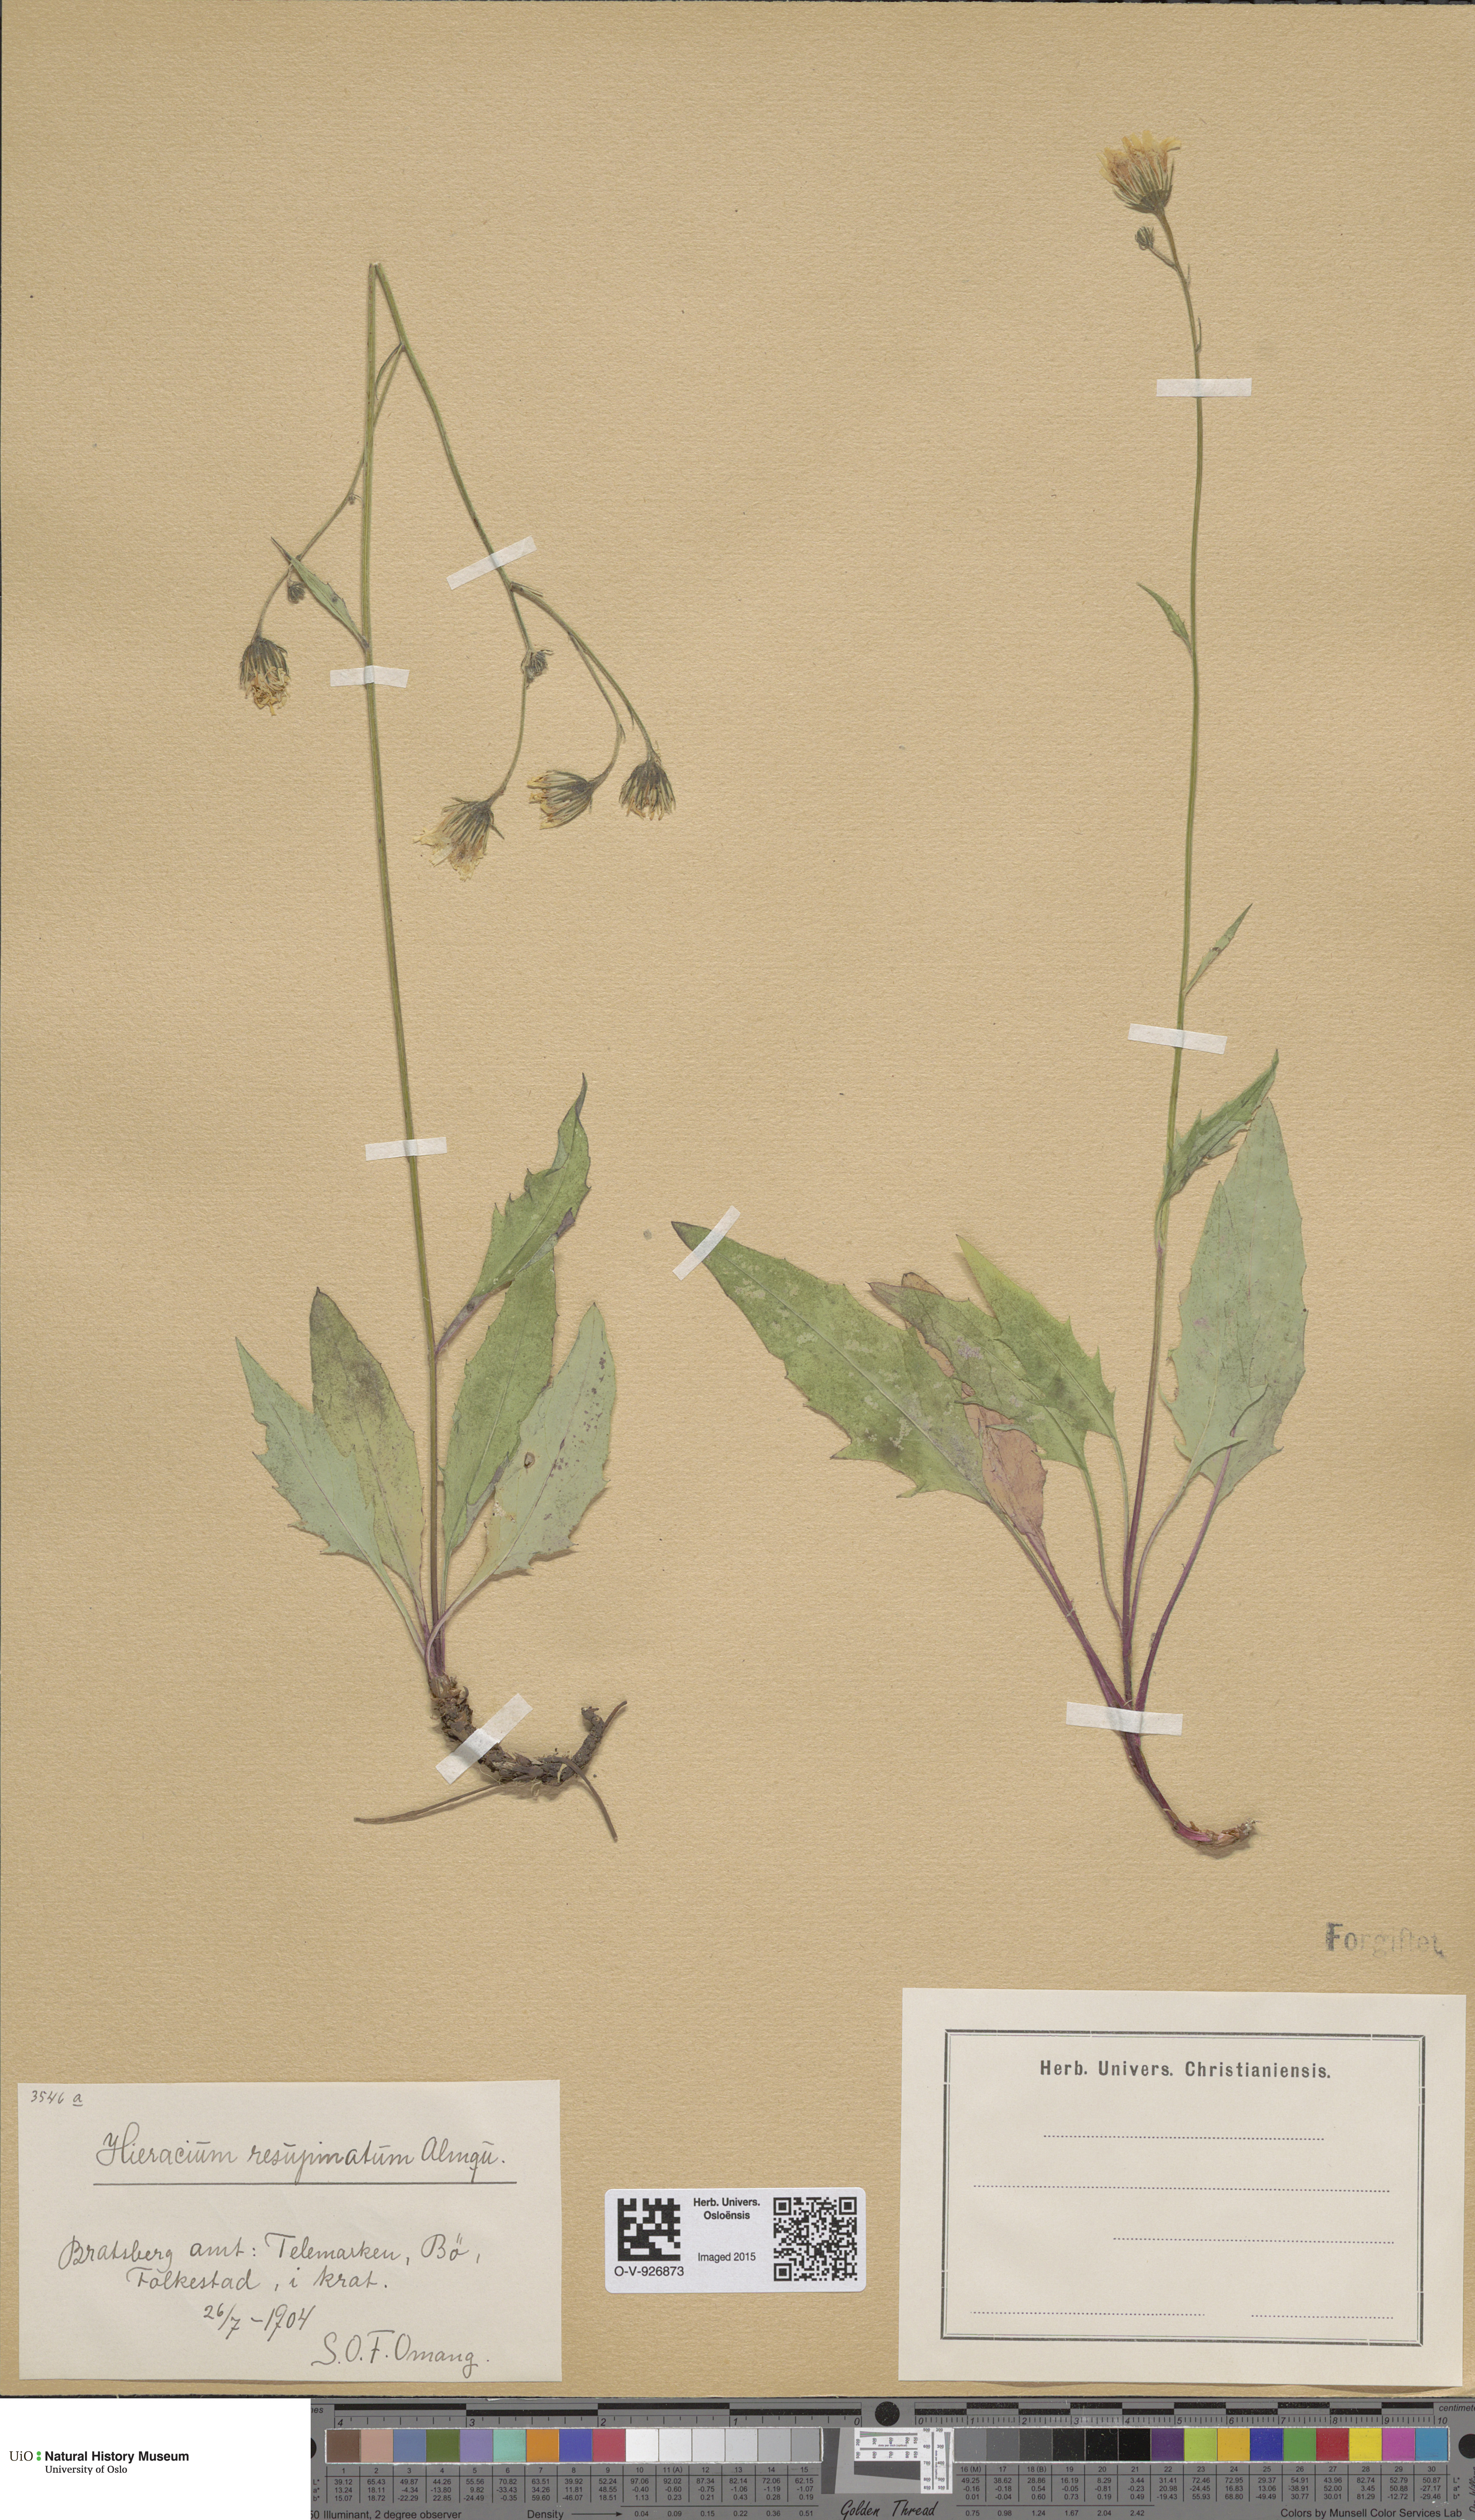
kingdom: Plantae
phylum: Tracheophyta
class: Magnoliopsida
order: Asterales
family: Asteraceae
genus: Hieracium
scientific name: Hieracium resupinatum
